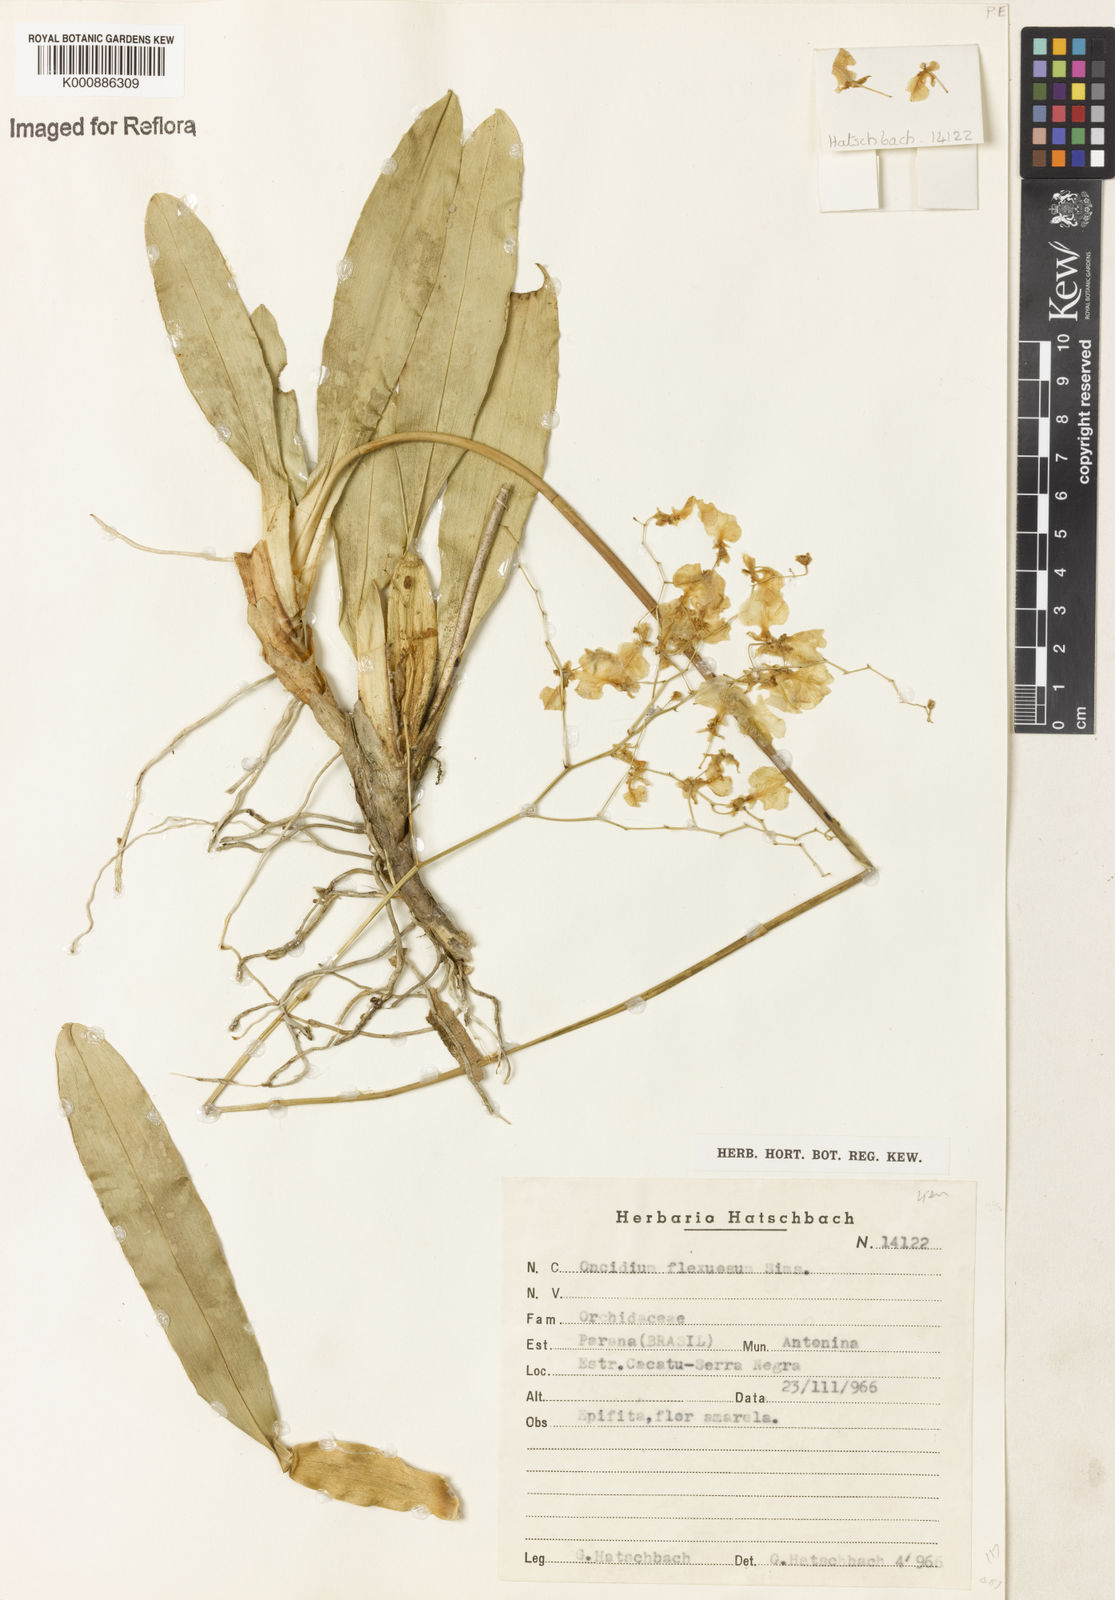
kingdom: Plantae
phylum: Tracheophyta
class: Liliopsida
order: Asparagales
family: Orchidaceae
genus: Gomesa
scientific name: Gomesa flexuosa
